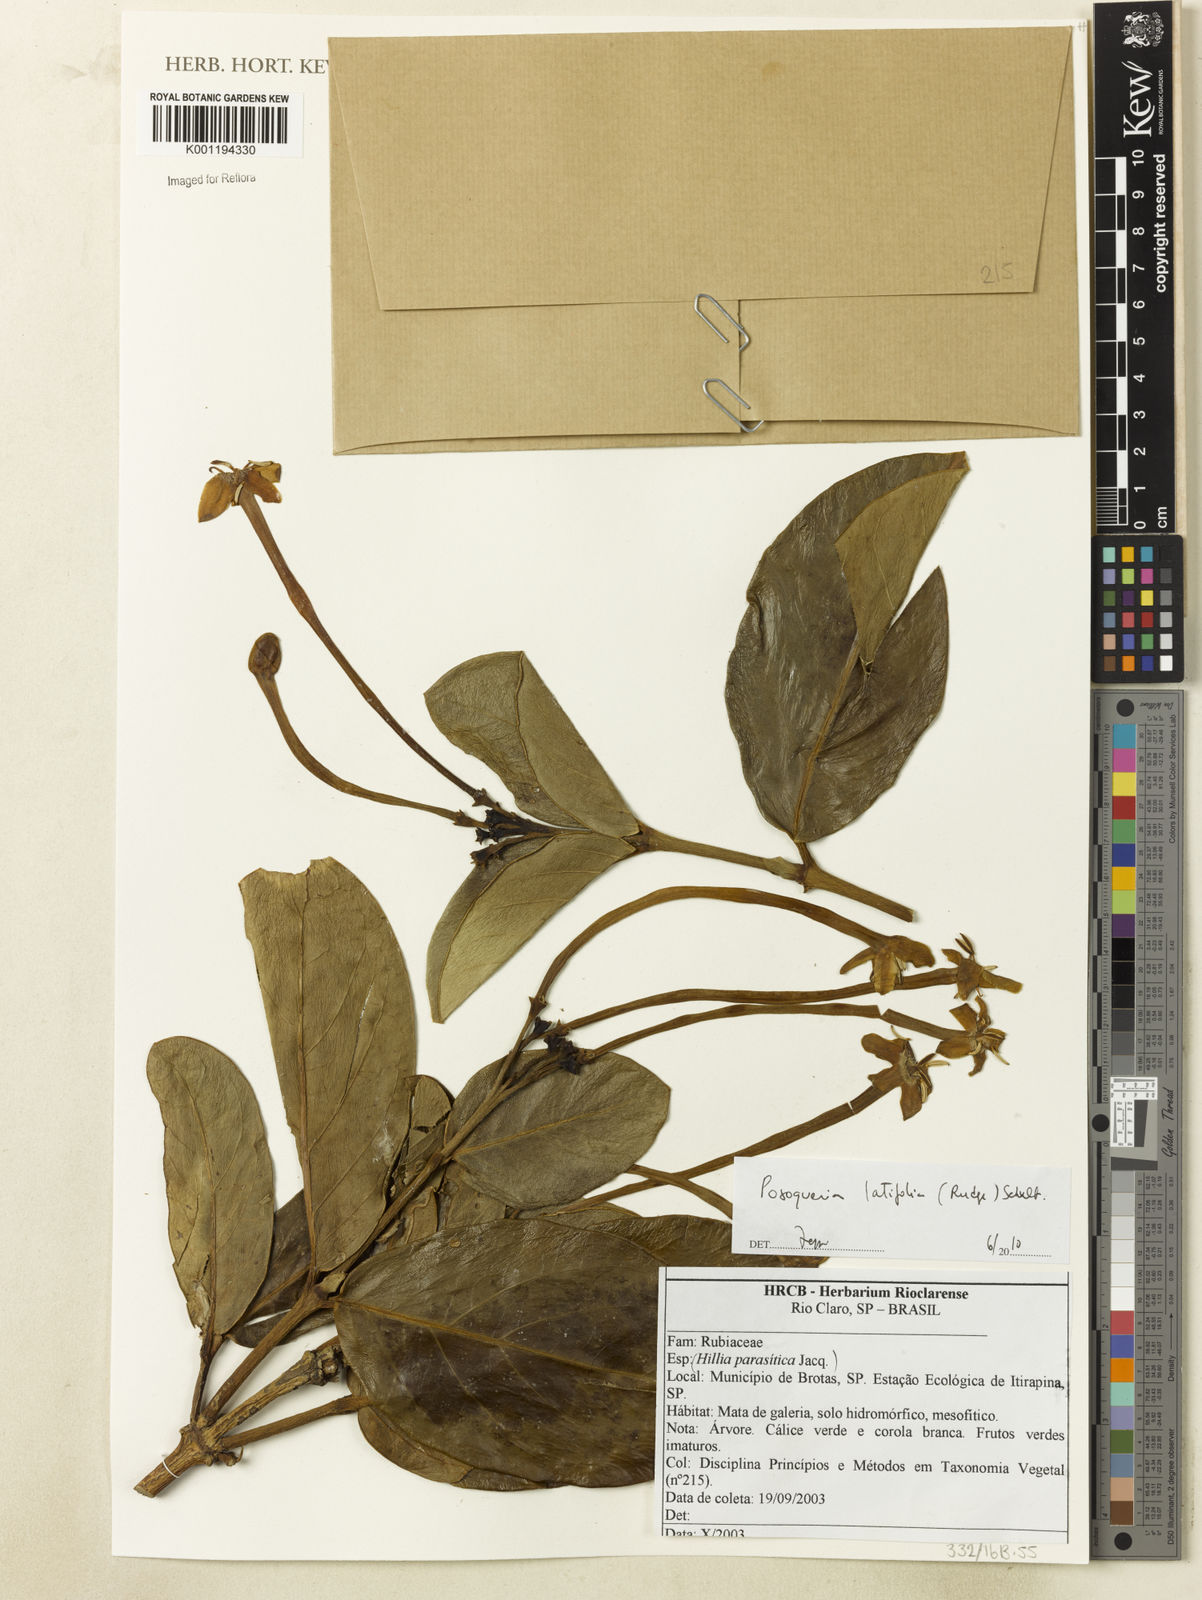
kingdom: Plantae
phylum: Tracheophyta
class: Magnoliopsida
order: Gentianales
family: Rubiaceae
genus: Posoqueria
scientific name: Posoqueria latifolia
